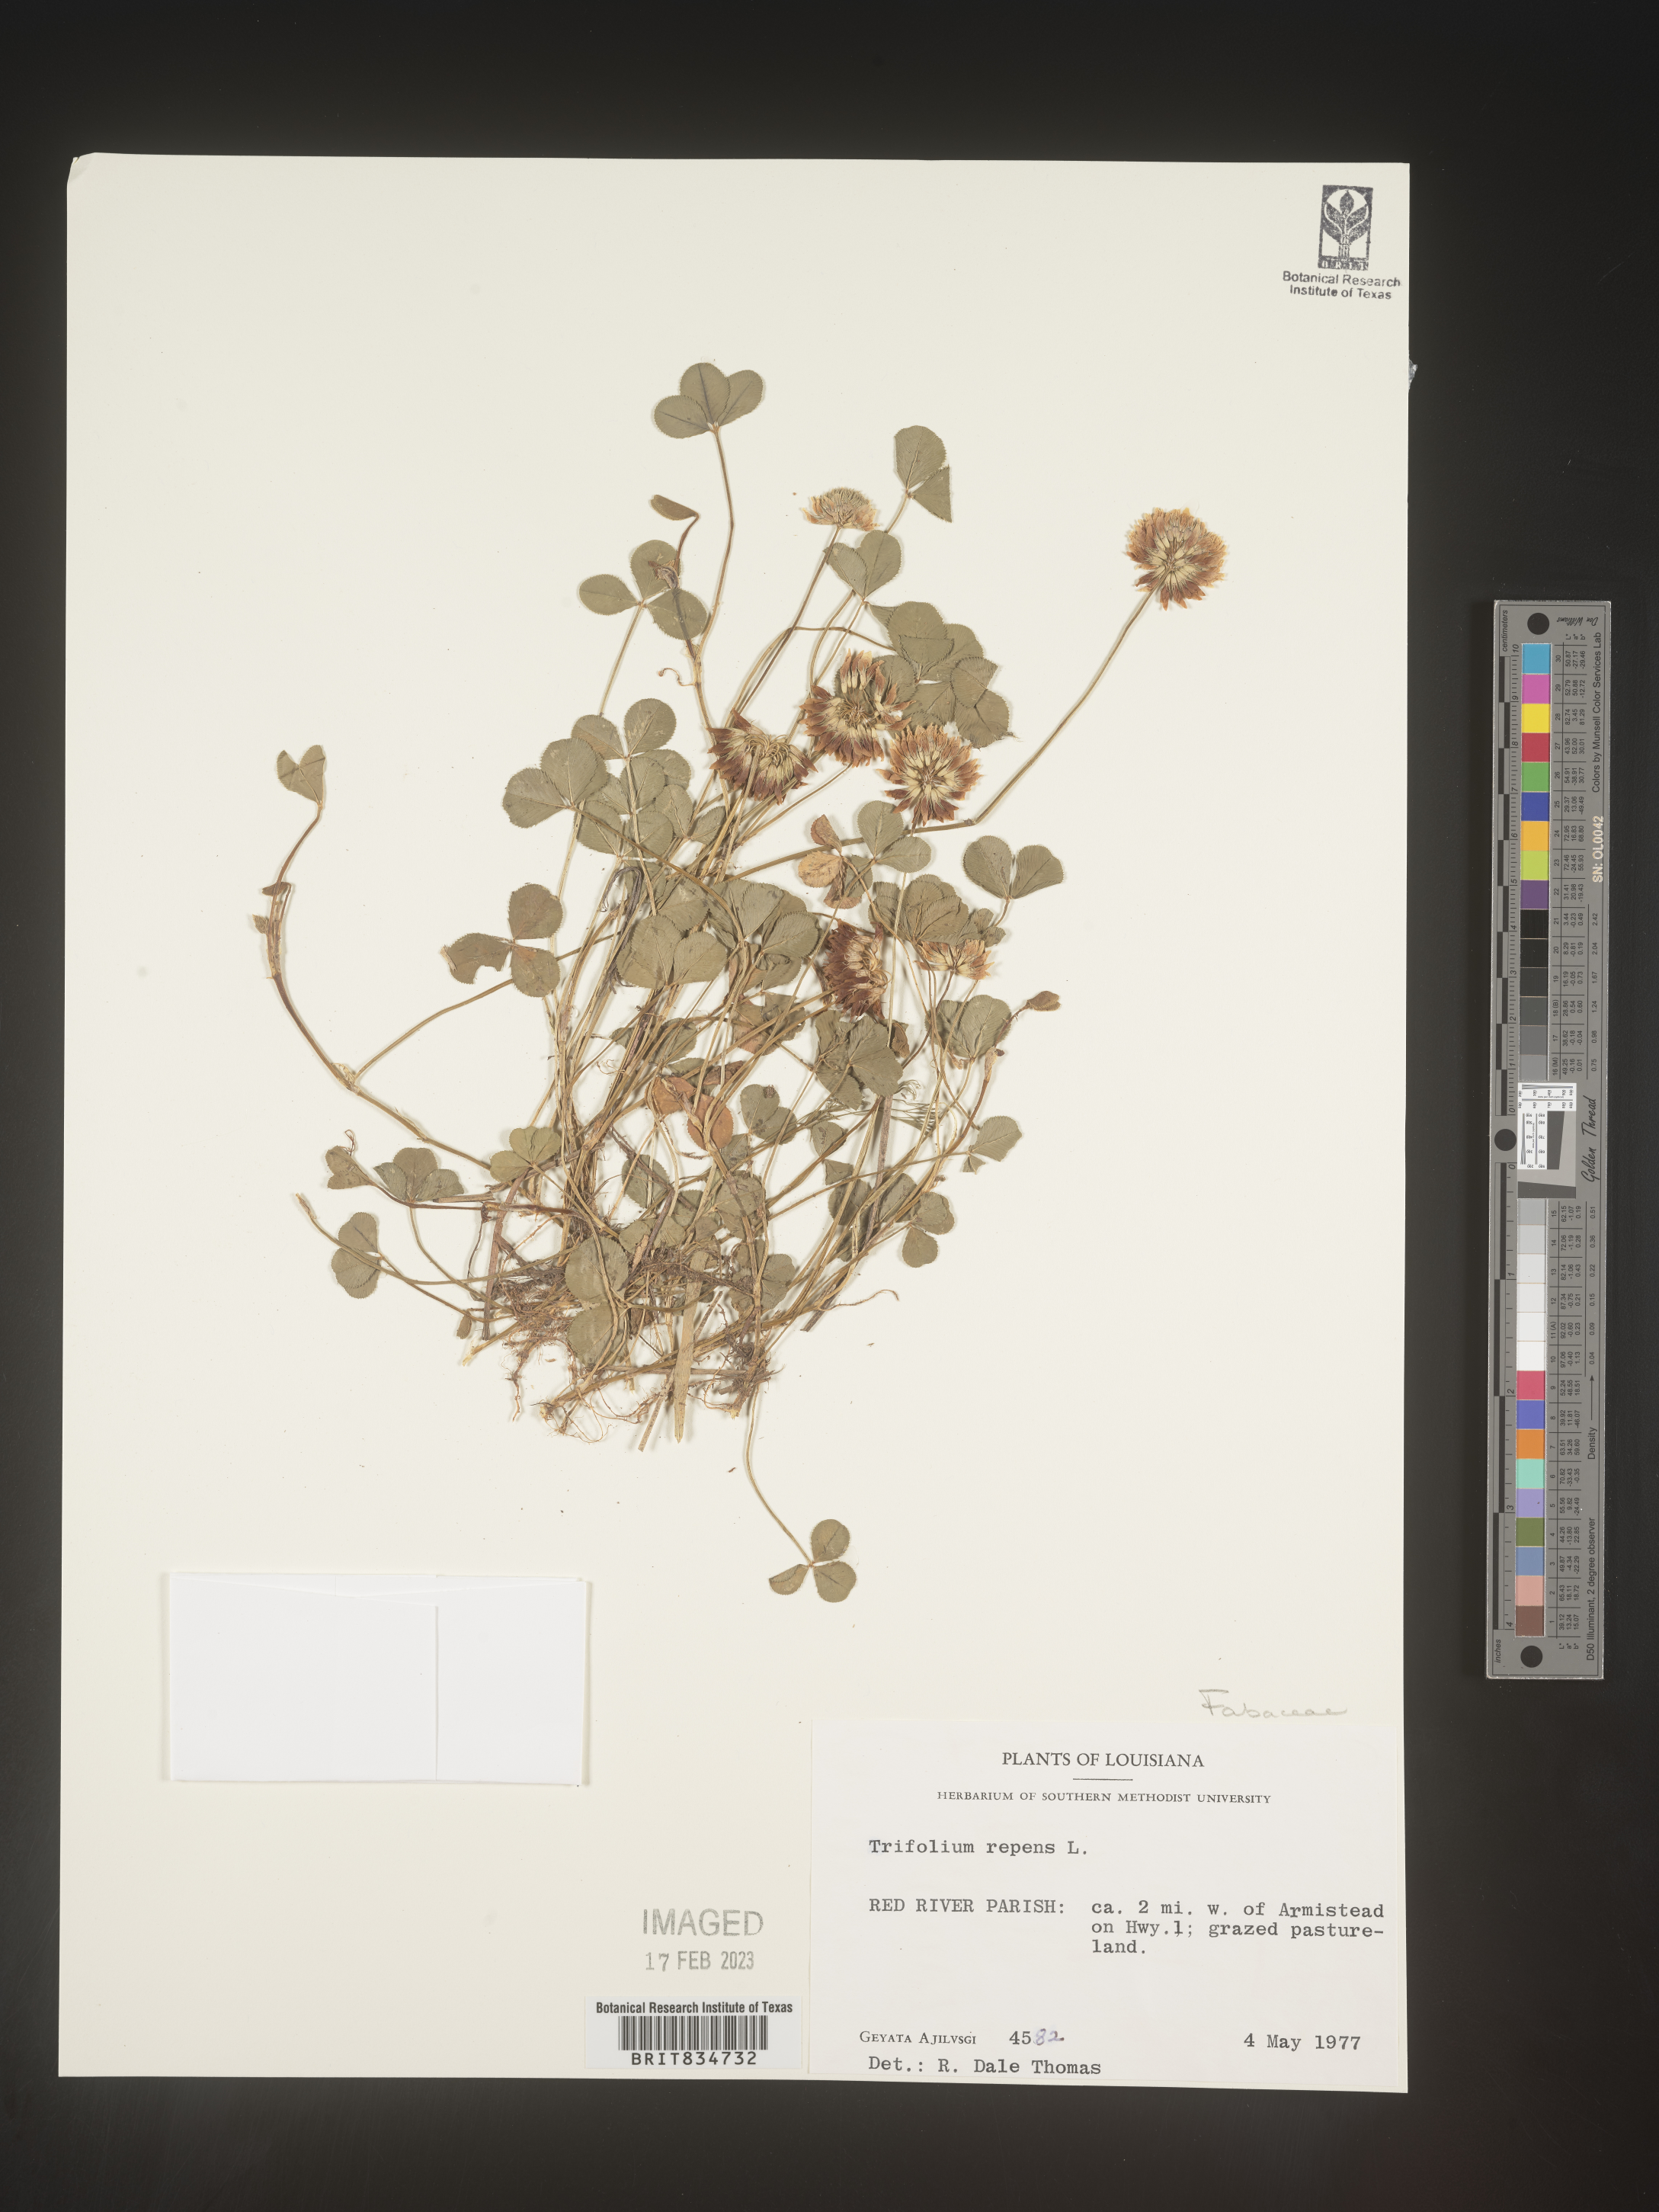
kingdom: Plantae
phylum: Tracheophyta
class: Magnoliopsida
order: Fabales
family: Fabaceae
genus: Trifolium
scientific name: Trifolium repens
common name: White clover
